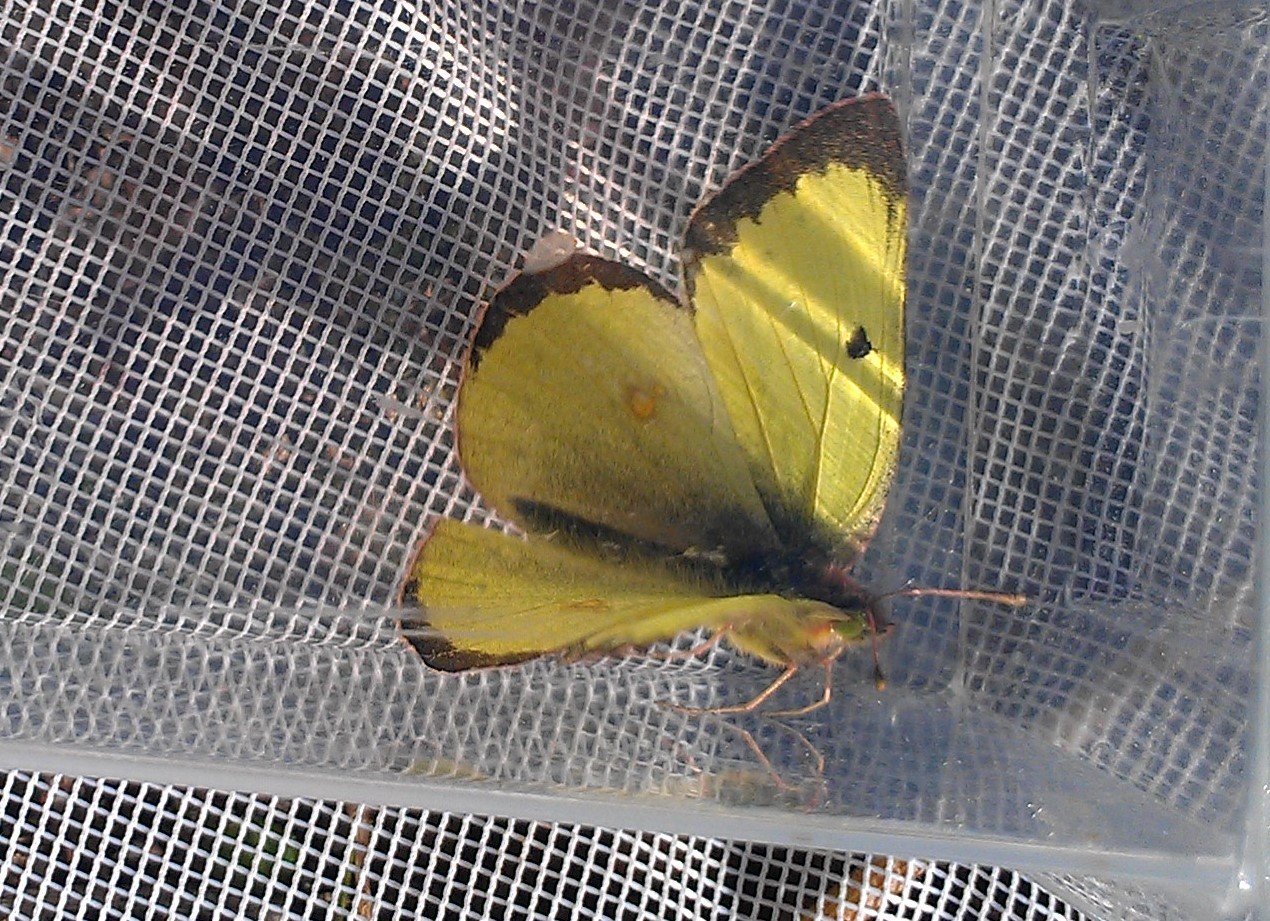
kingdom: Animalia
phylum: Arthropoda
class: Insecta
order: Lepidoptera
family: Pieridae
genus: Colias
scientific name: Colias philodice
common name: Clouded Sulphur
